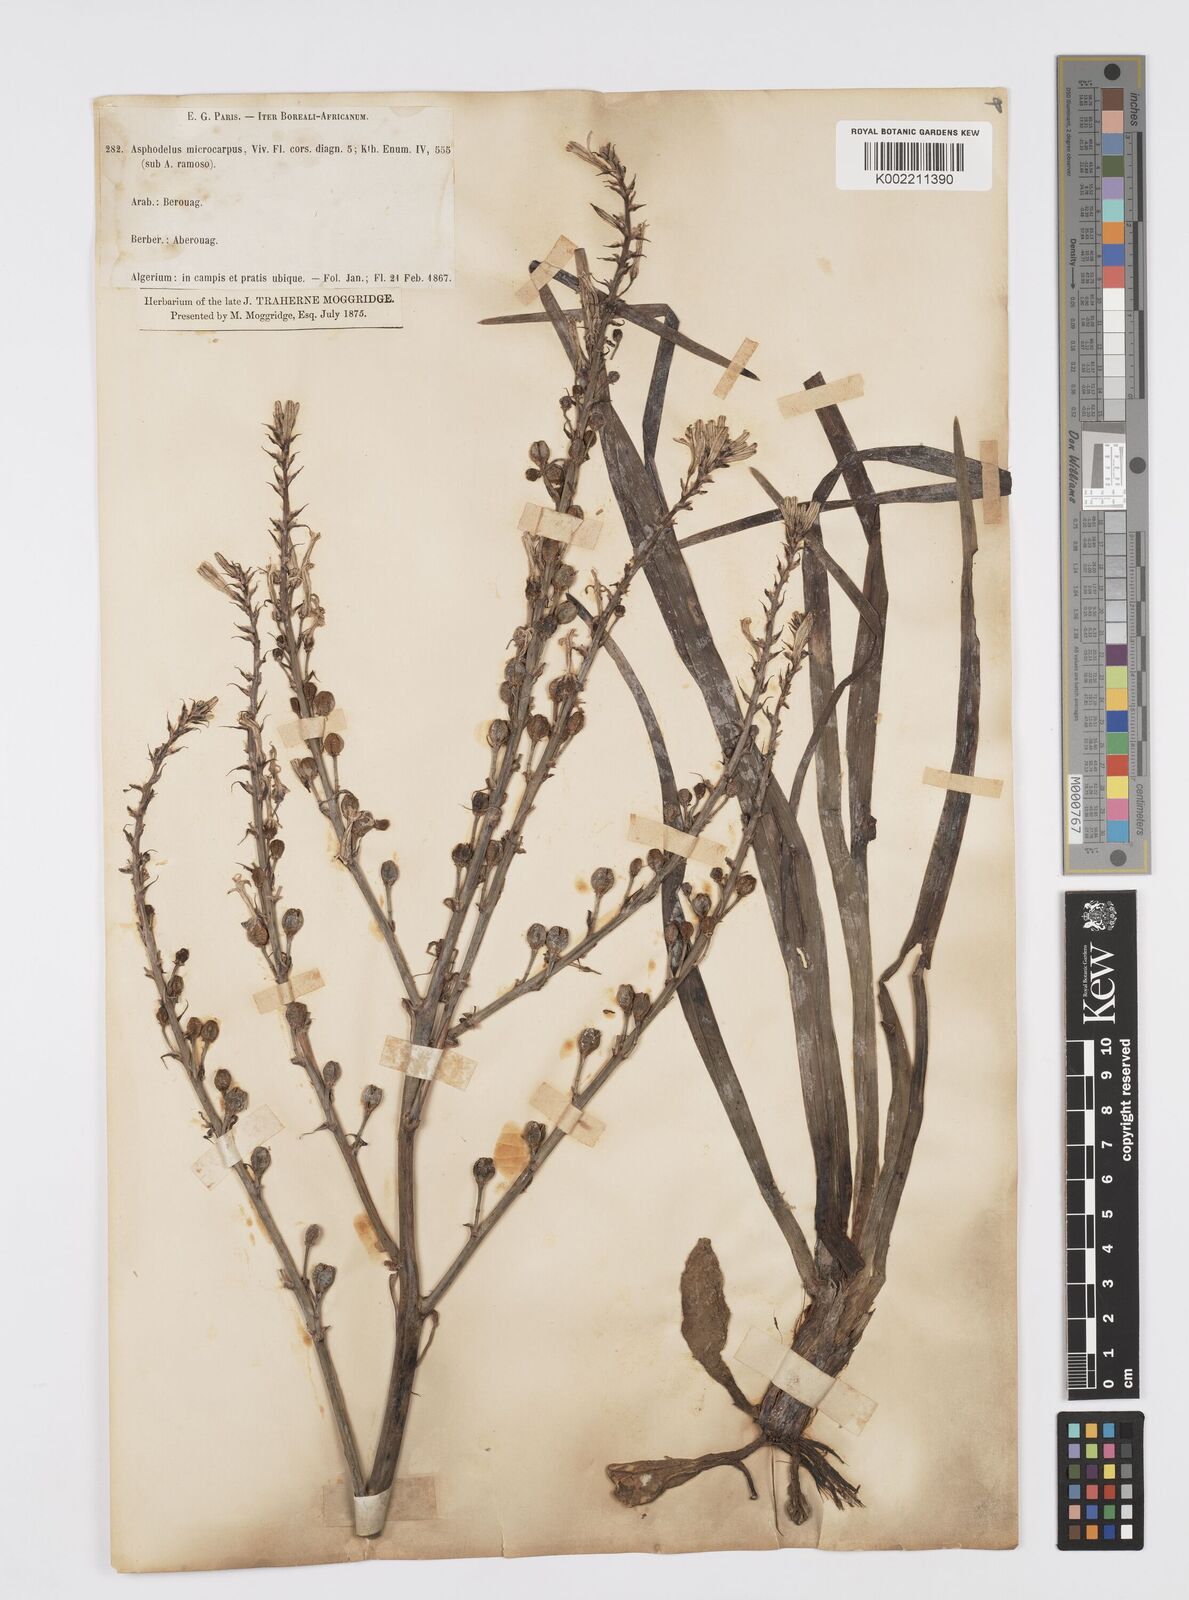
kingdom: Plantae
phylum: Tracheophyta
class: Liliopsida
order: Asparagales
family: Asphodelaceae
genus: Asphodelus
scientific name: Asphodelus ramosus
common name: Silverrod
